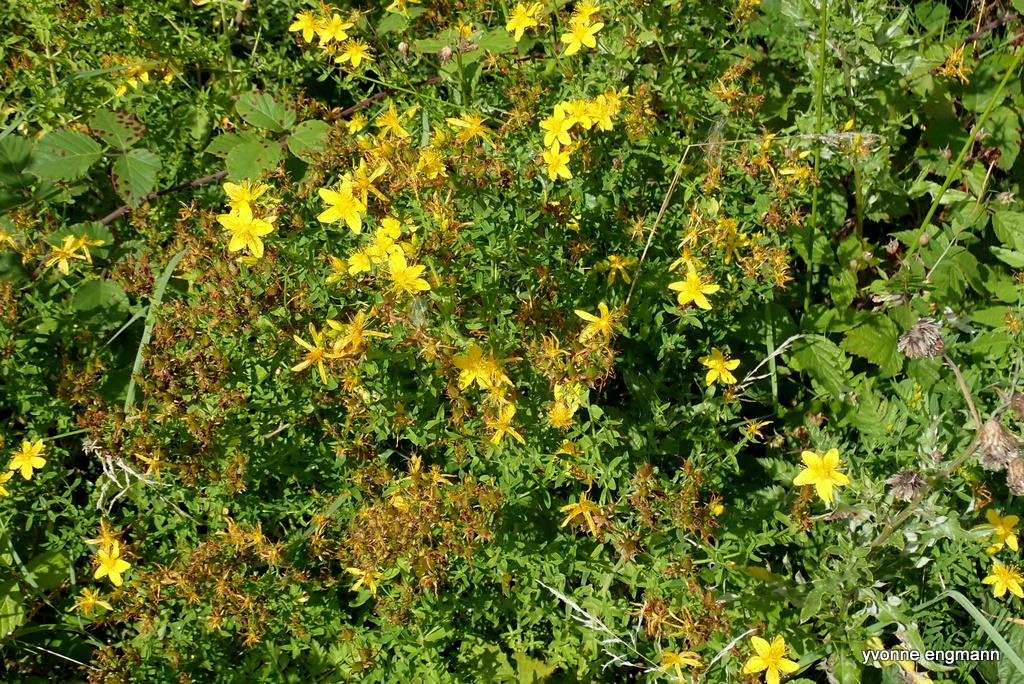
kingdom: Plantae
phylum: Tracheophyta
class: Magnoliopsida
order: Malpighiales
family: Hypericaceae
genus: Hypericum
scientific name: Hypericum perforatum
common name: Prikbladet perikon
